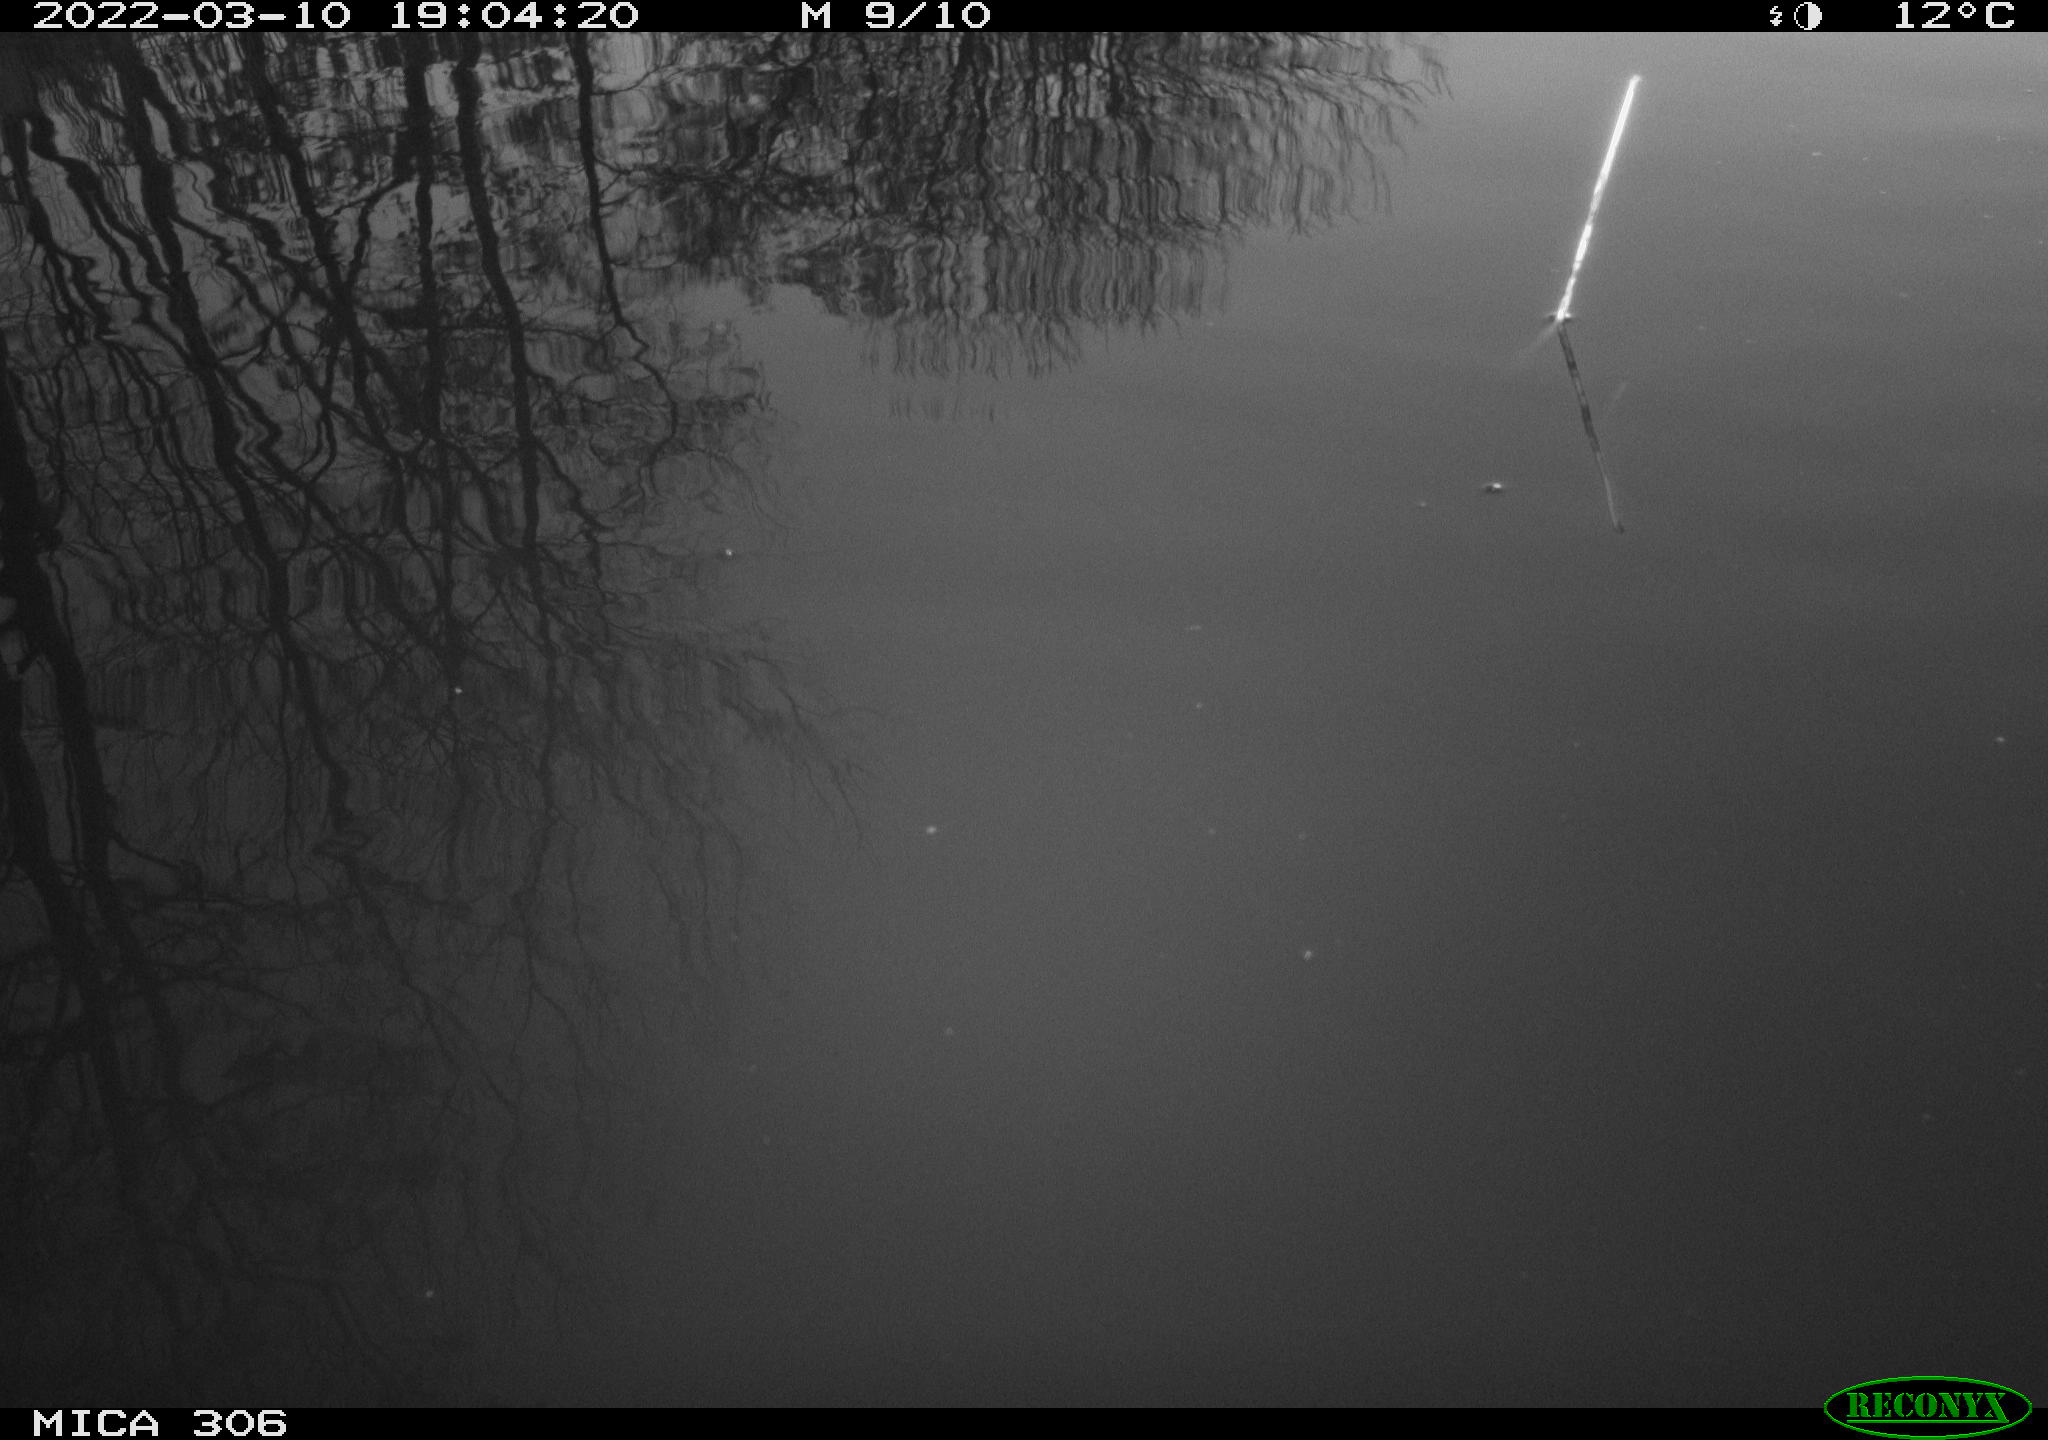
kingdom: Animalia
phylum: Chordata
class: Aves
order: Gruiformes
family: Rallidae
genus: Gallinula
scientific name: Gallinula chloropus
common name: Common moorhen
